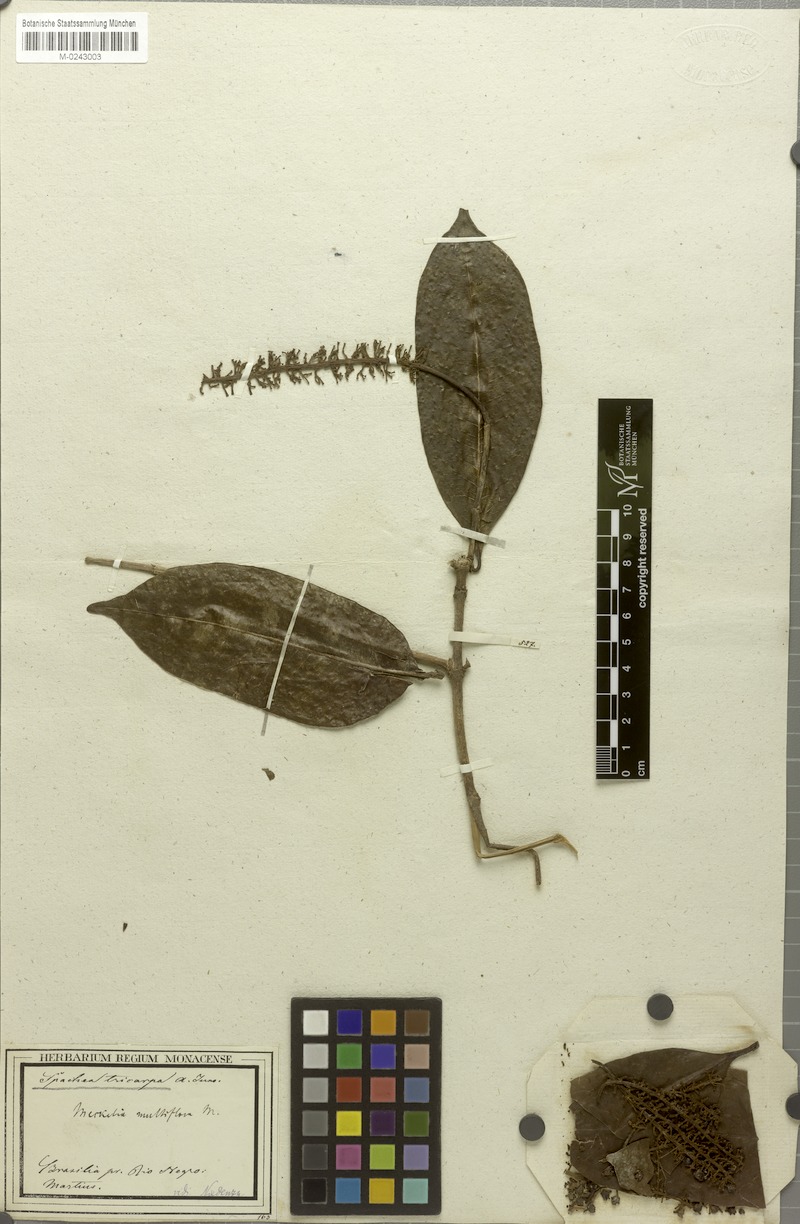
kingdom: Plantae
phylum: Tracheophyta
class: Magnoliopsida
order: Malpighiales
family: Malpighiaceae
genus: Spachea
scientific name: Spachea tricarpa
